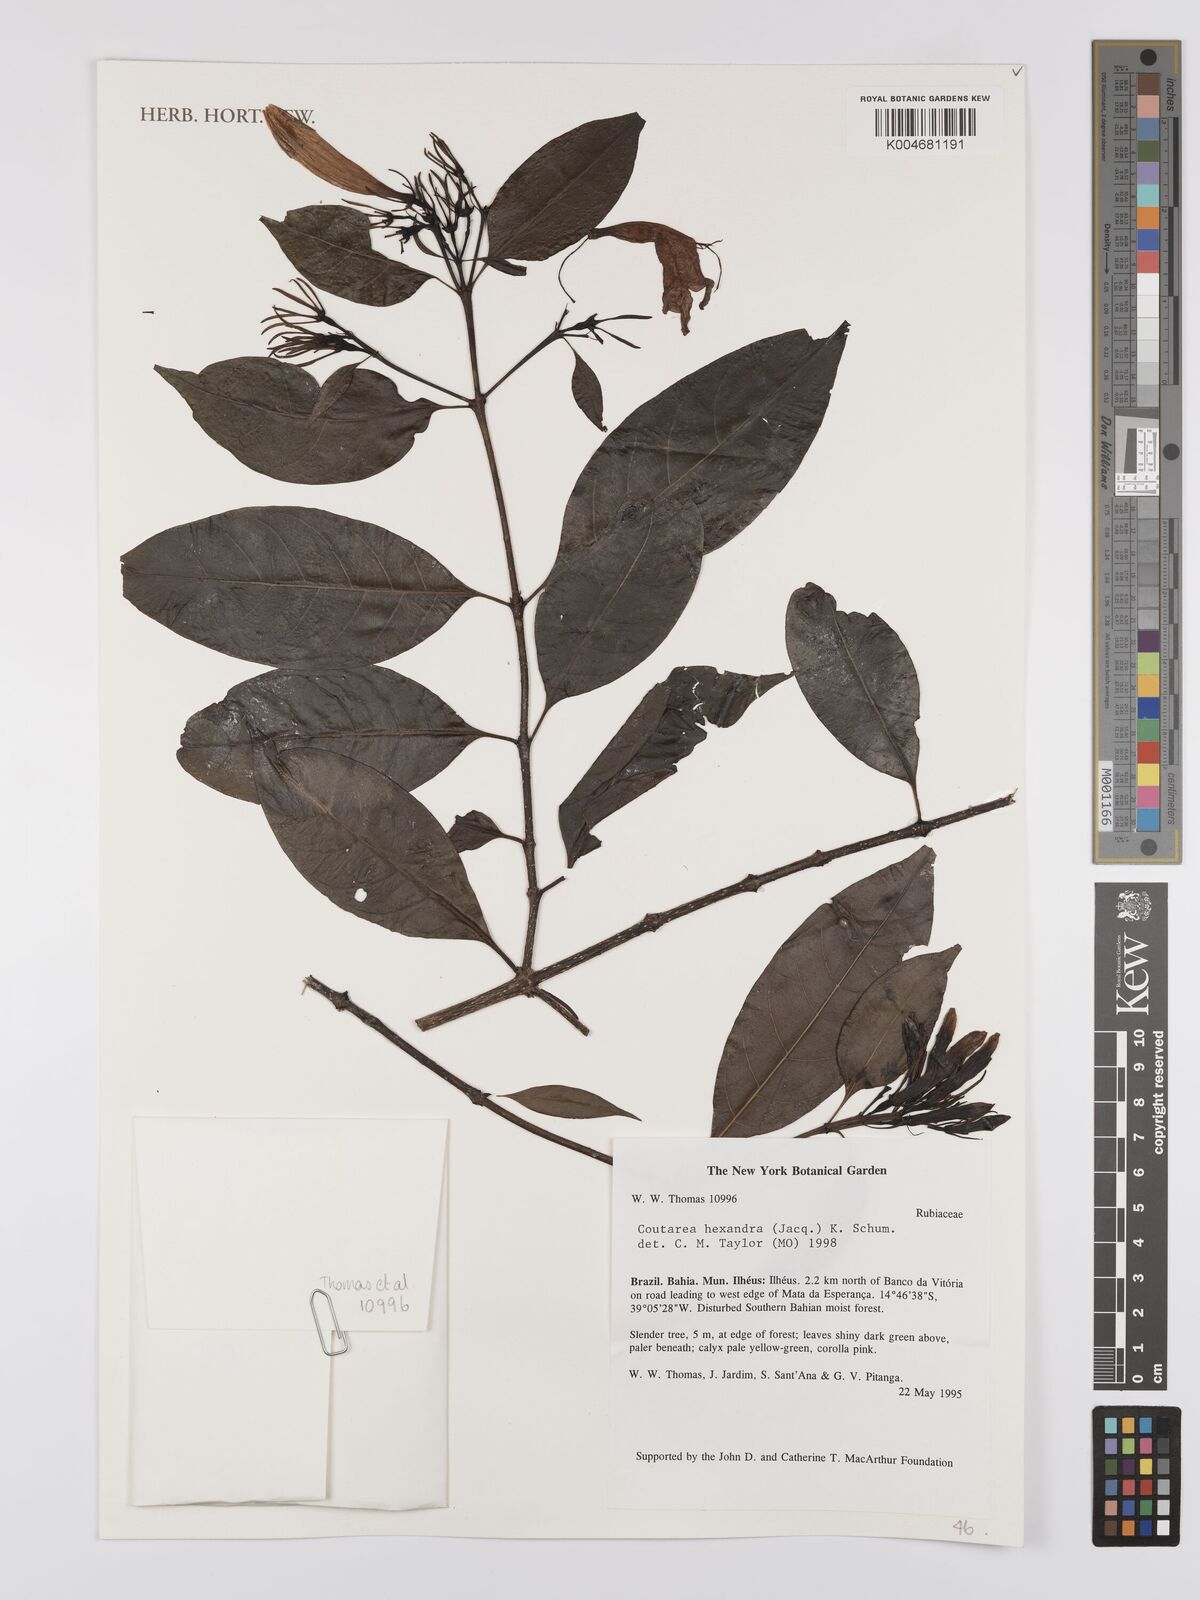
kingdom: Plantae
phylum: Tracheophyta
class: Magnoliopsida
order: Gentianales
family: Rubiaceae
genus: Coutarea
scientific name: Coutarea hexandra
